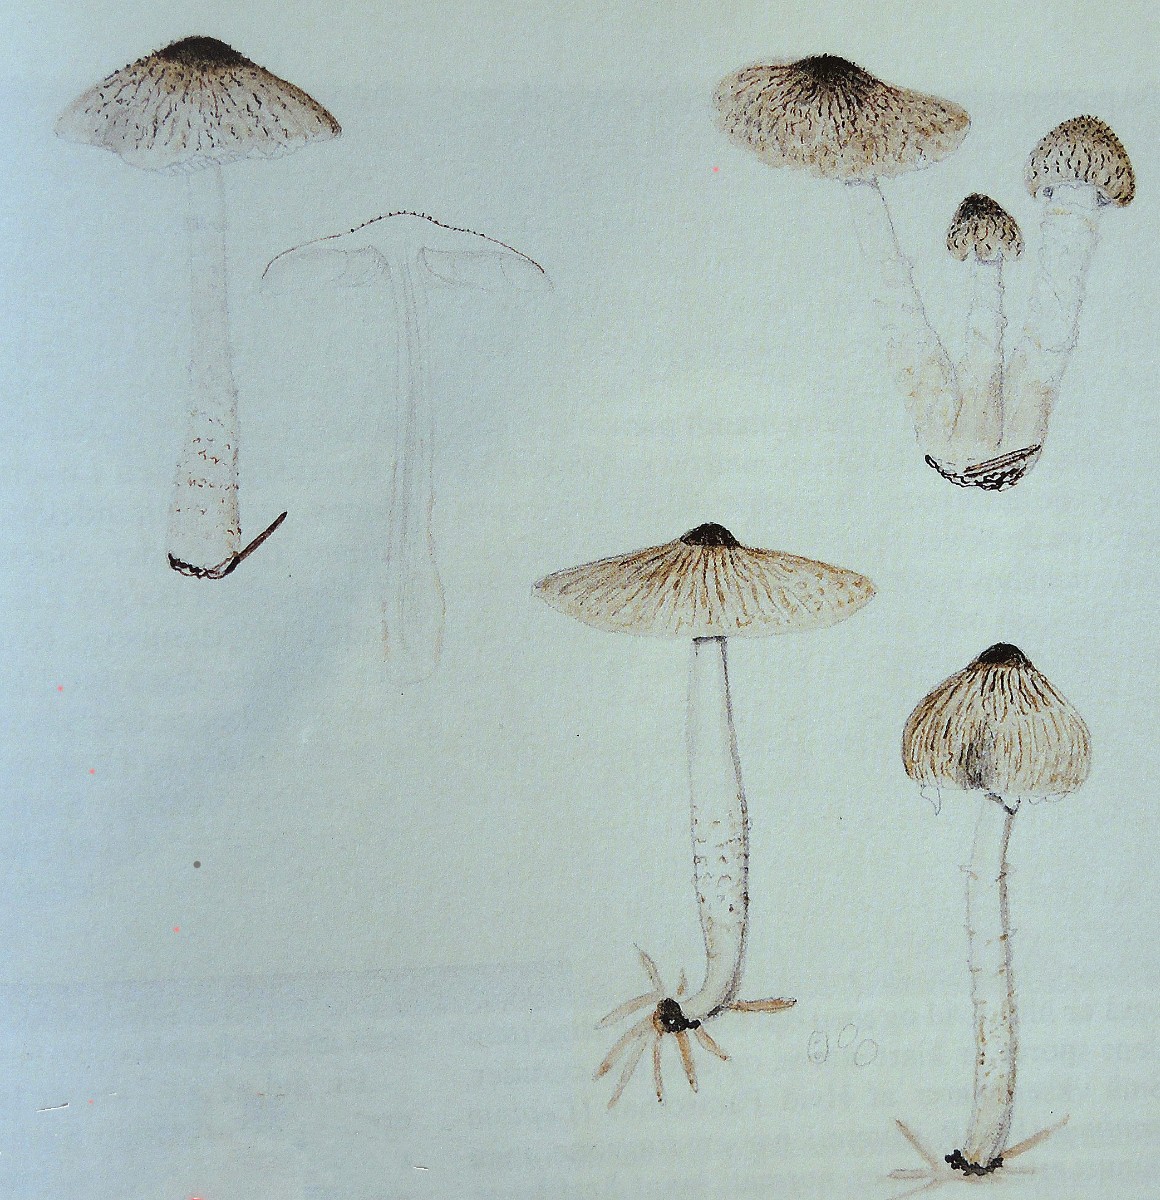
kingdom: Fungi
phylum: Basidiomycota
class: Agaricomycetes
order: Agaricales
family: Agaricaceae
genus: Lepiota
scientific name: Lepiota forquignonii
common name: olivenbrun parasolhat
